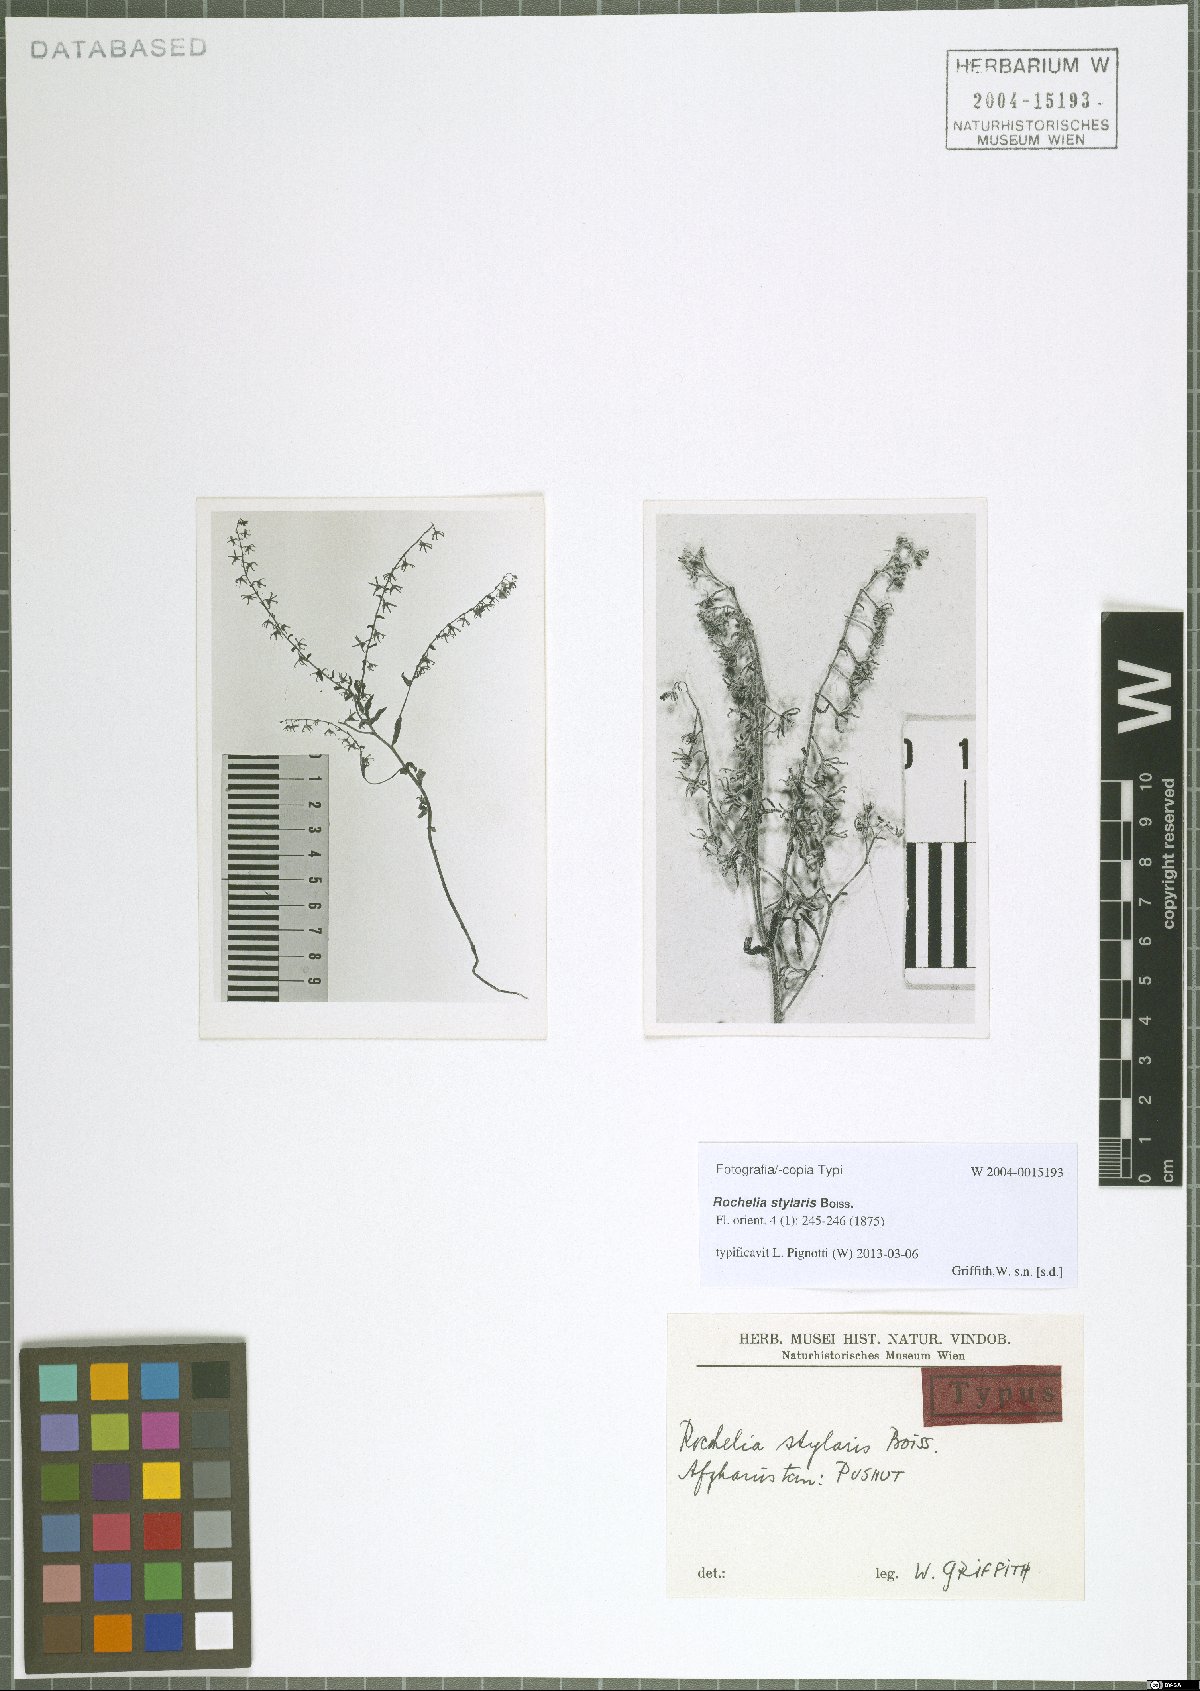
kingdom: Plantae
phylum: Tracheophyta
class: Magnoliopsida
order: Boraginales
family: Boraginaceae
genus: Rochelia
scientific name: Rochelia stylaris
